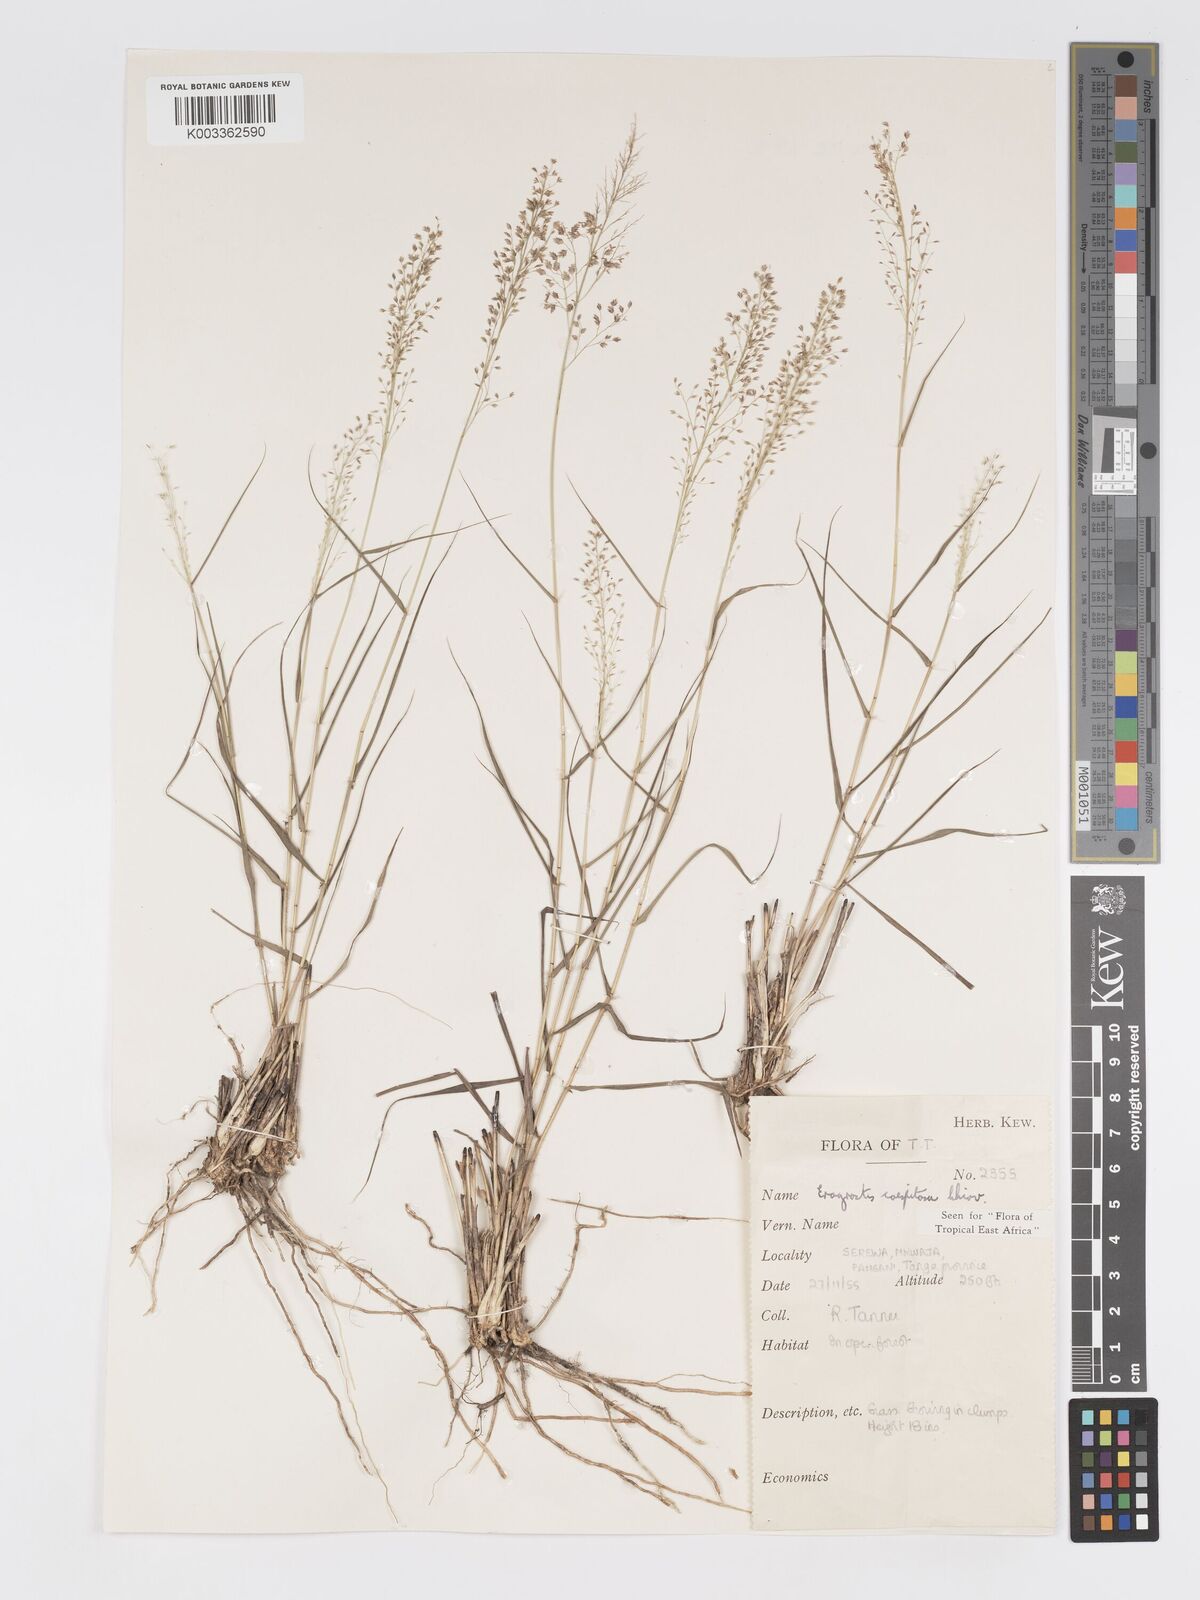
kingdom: Plantae
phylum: Tracheophyta
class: Liliopsida
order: Poales
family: Poaceae
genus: Eragrostis
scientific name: Eragrostis caespitosa
